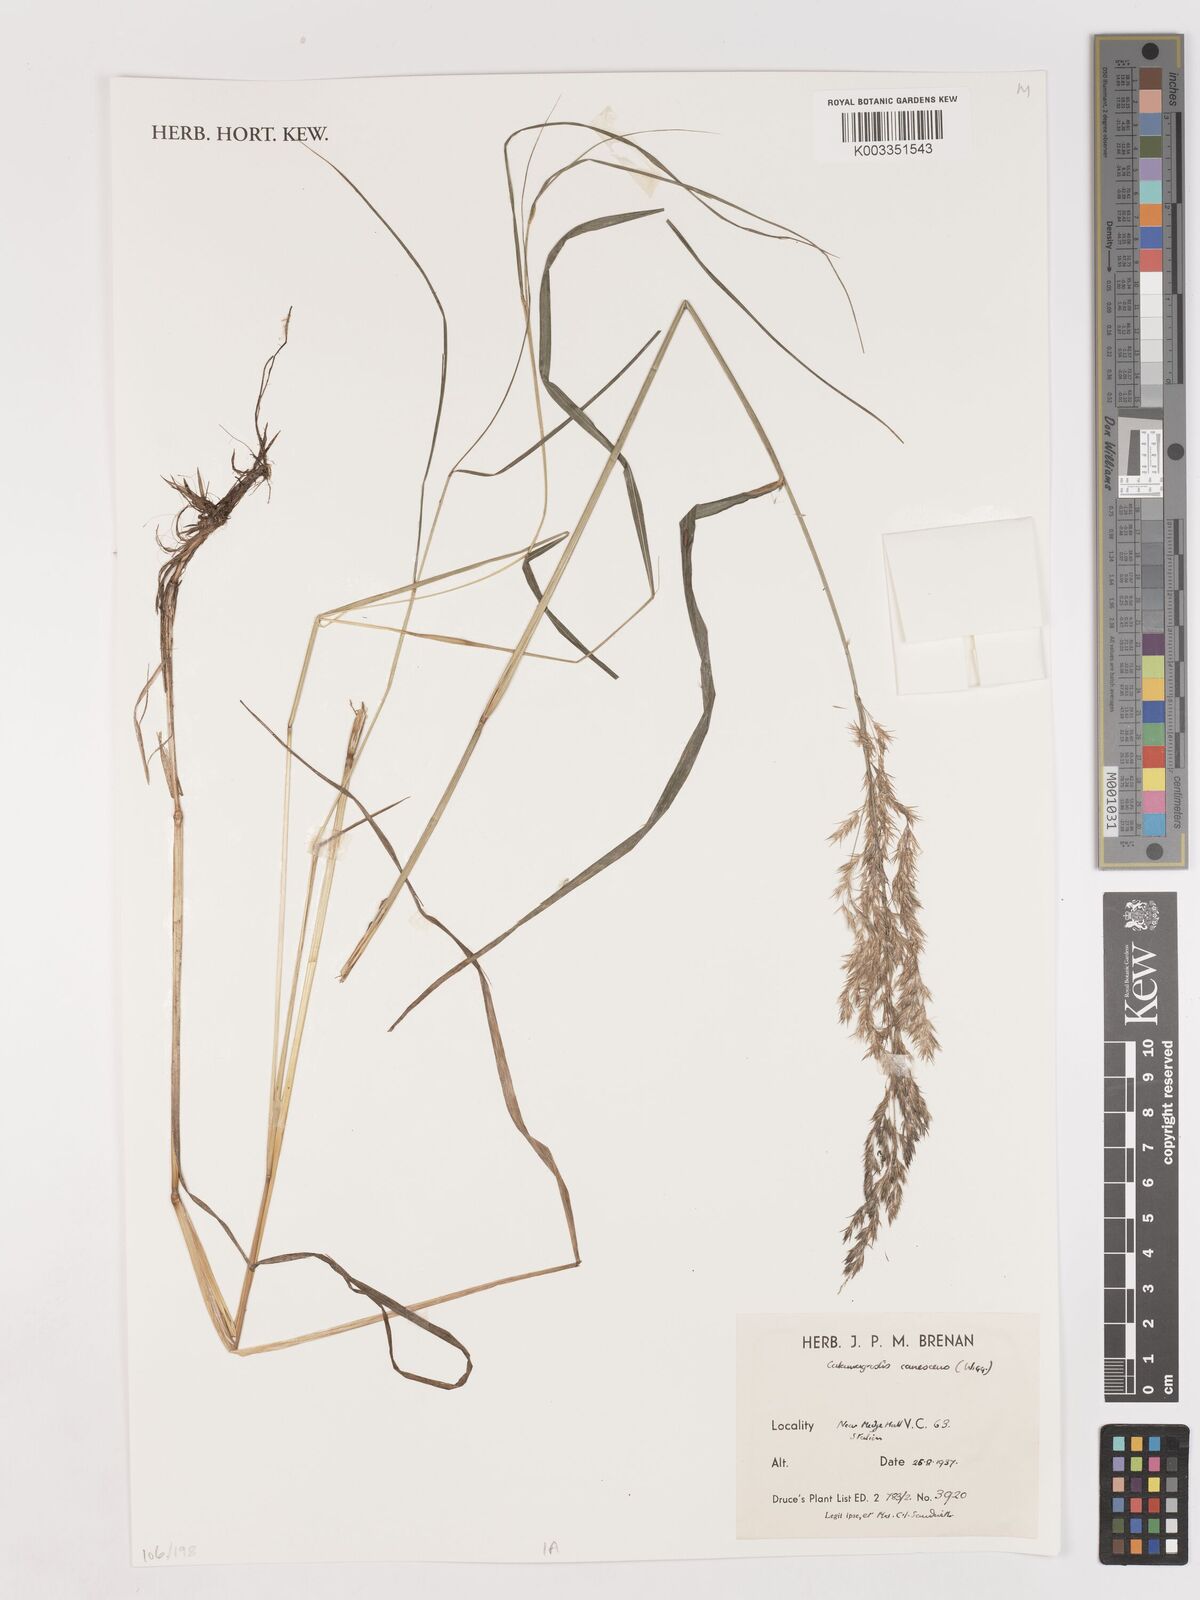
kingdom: Plantae
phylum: Tracheophyta
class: Liliopsida
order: Poales
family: Poaceae
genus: Calamagrostis
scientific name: Calamagrostis canescens
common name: Purple small-reed
